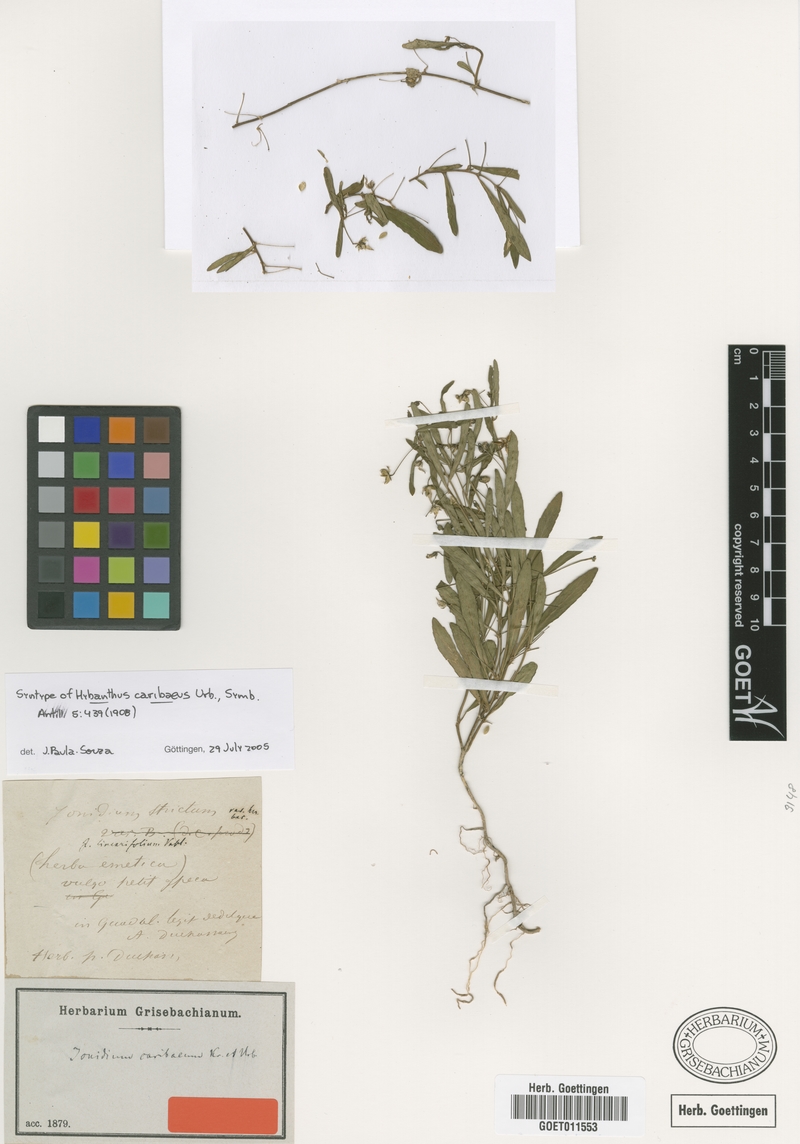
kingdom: Plantae
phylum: Tracheophyta
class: Magnoliopsida
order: Malpighiales
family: Violaceae
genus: Pombalia
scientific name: Pombalia linearifolia
